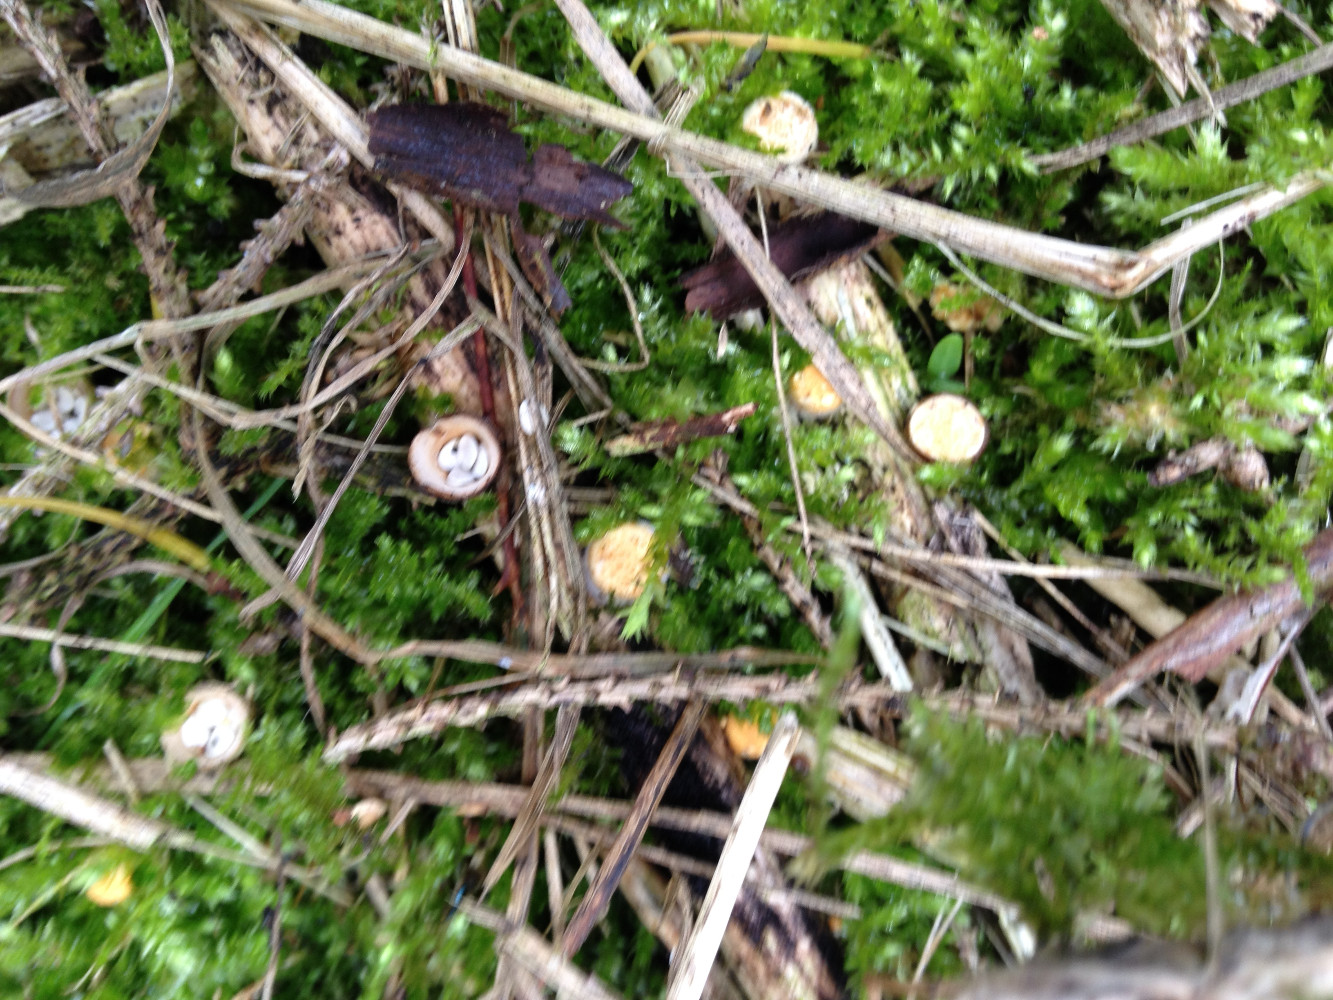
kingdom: Fungi
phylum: Basidiomycota
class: Agaricomycetes
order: Agaricales
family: Nidulariaceae
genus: Crucibulum
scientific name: Crucibulum crucibuliforme
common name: krukkesvamp
